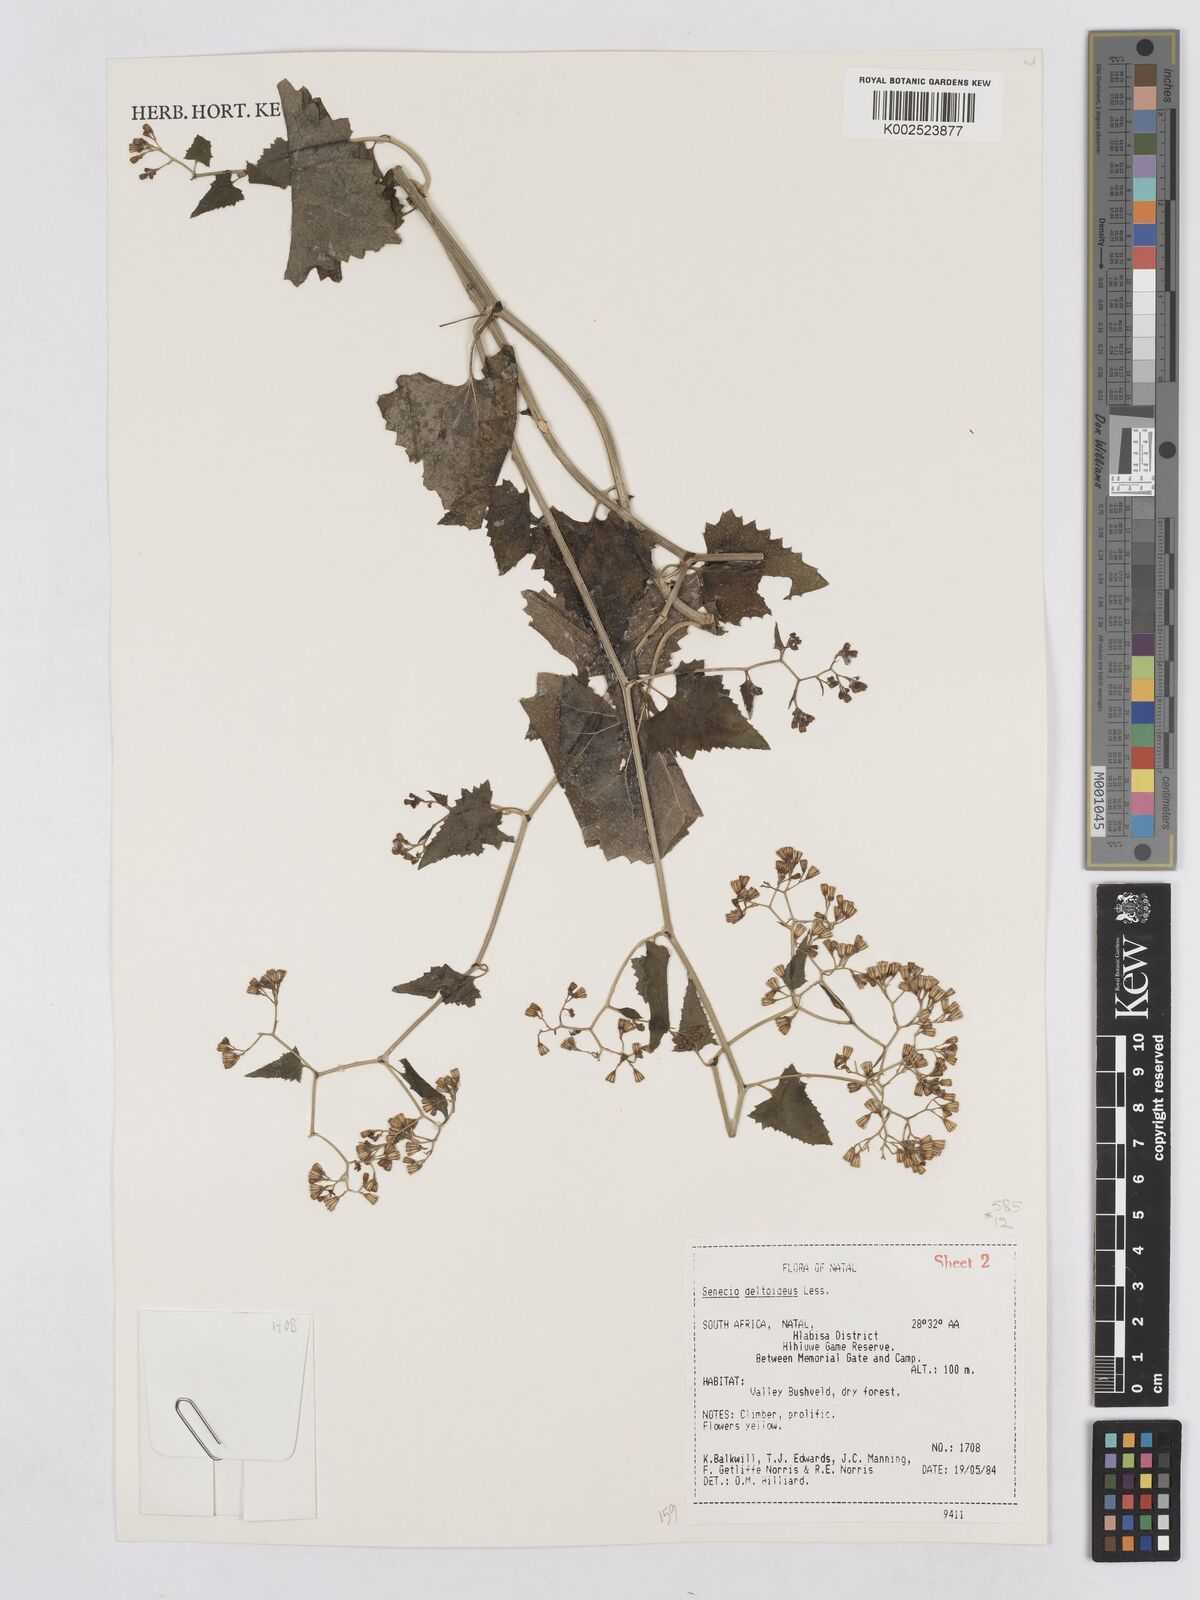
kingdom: Plantae
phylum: Tracheophyta
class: Magnoliopsida
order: Asterales
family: Asteraceae
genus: Senecio
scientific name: Senecio deltoideus
